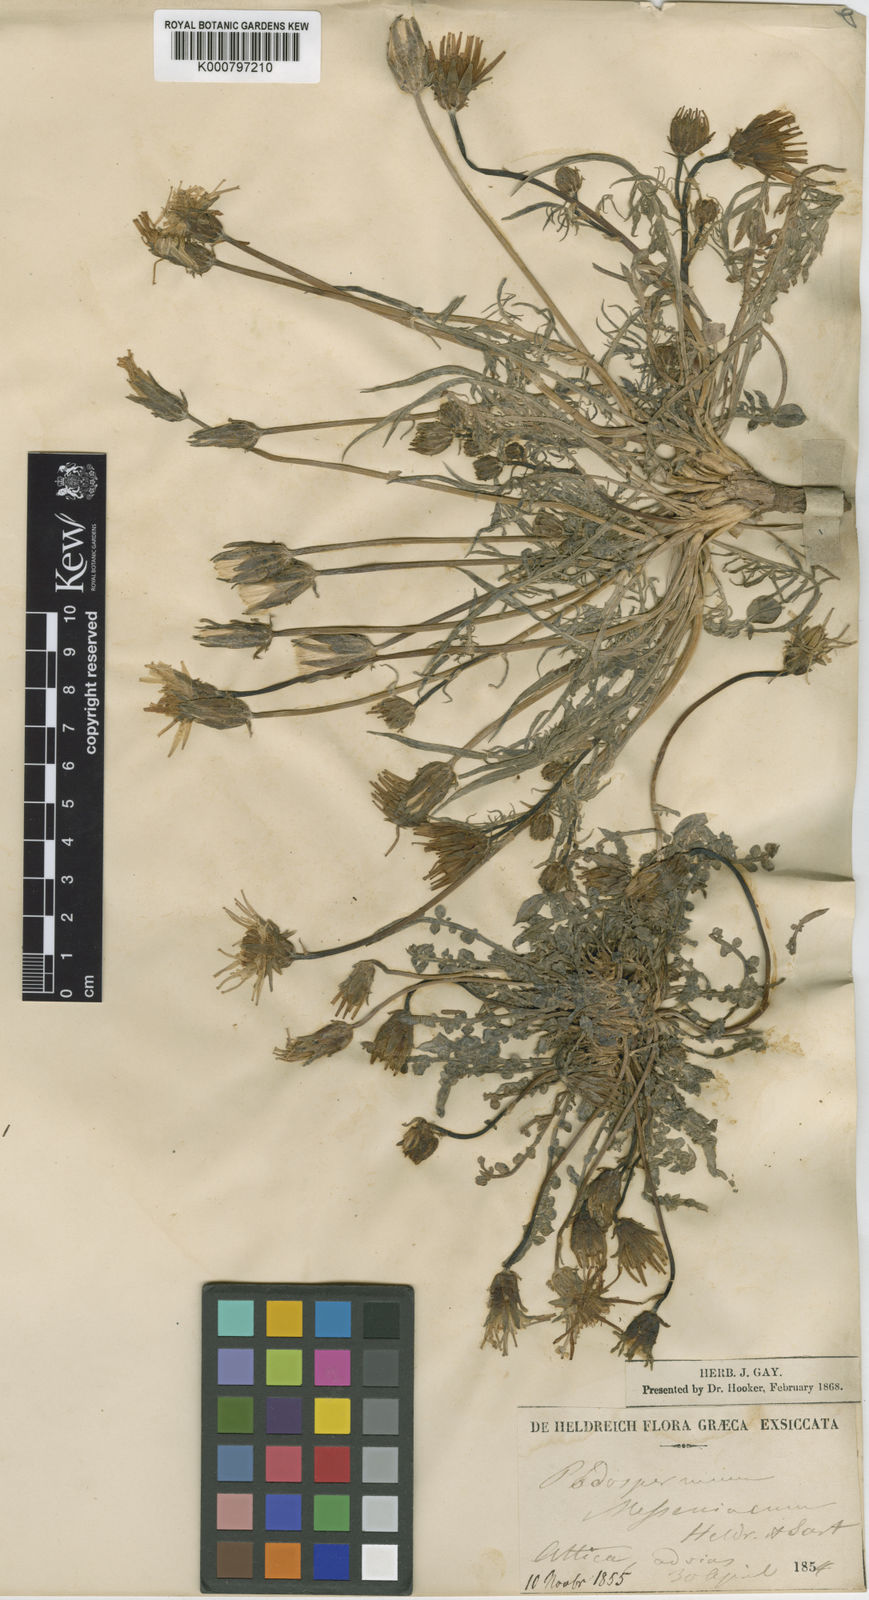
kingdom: Plantae
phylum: Tracheophyta
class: Magnoliopsida
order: Asterales
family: Asteraceae
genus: Scorzonera
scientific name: Scorzonera laciniata
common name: Cutleaf vipergrass
